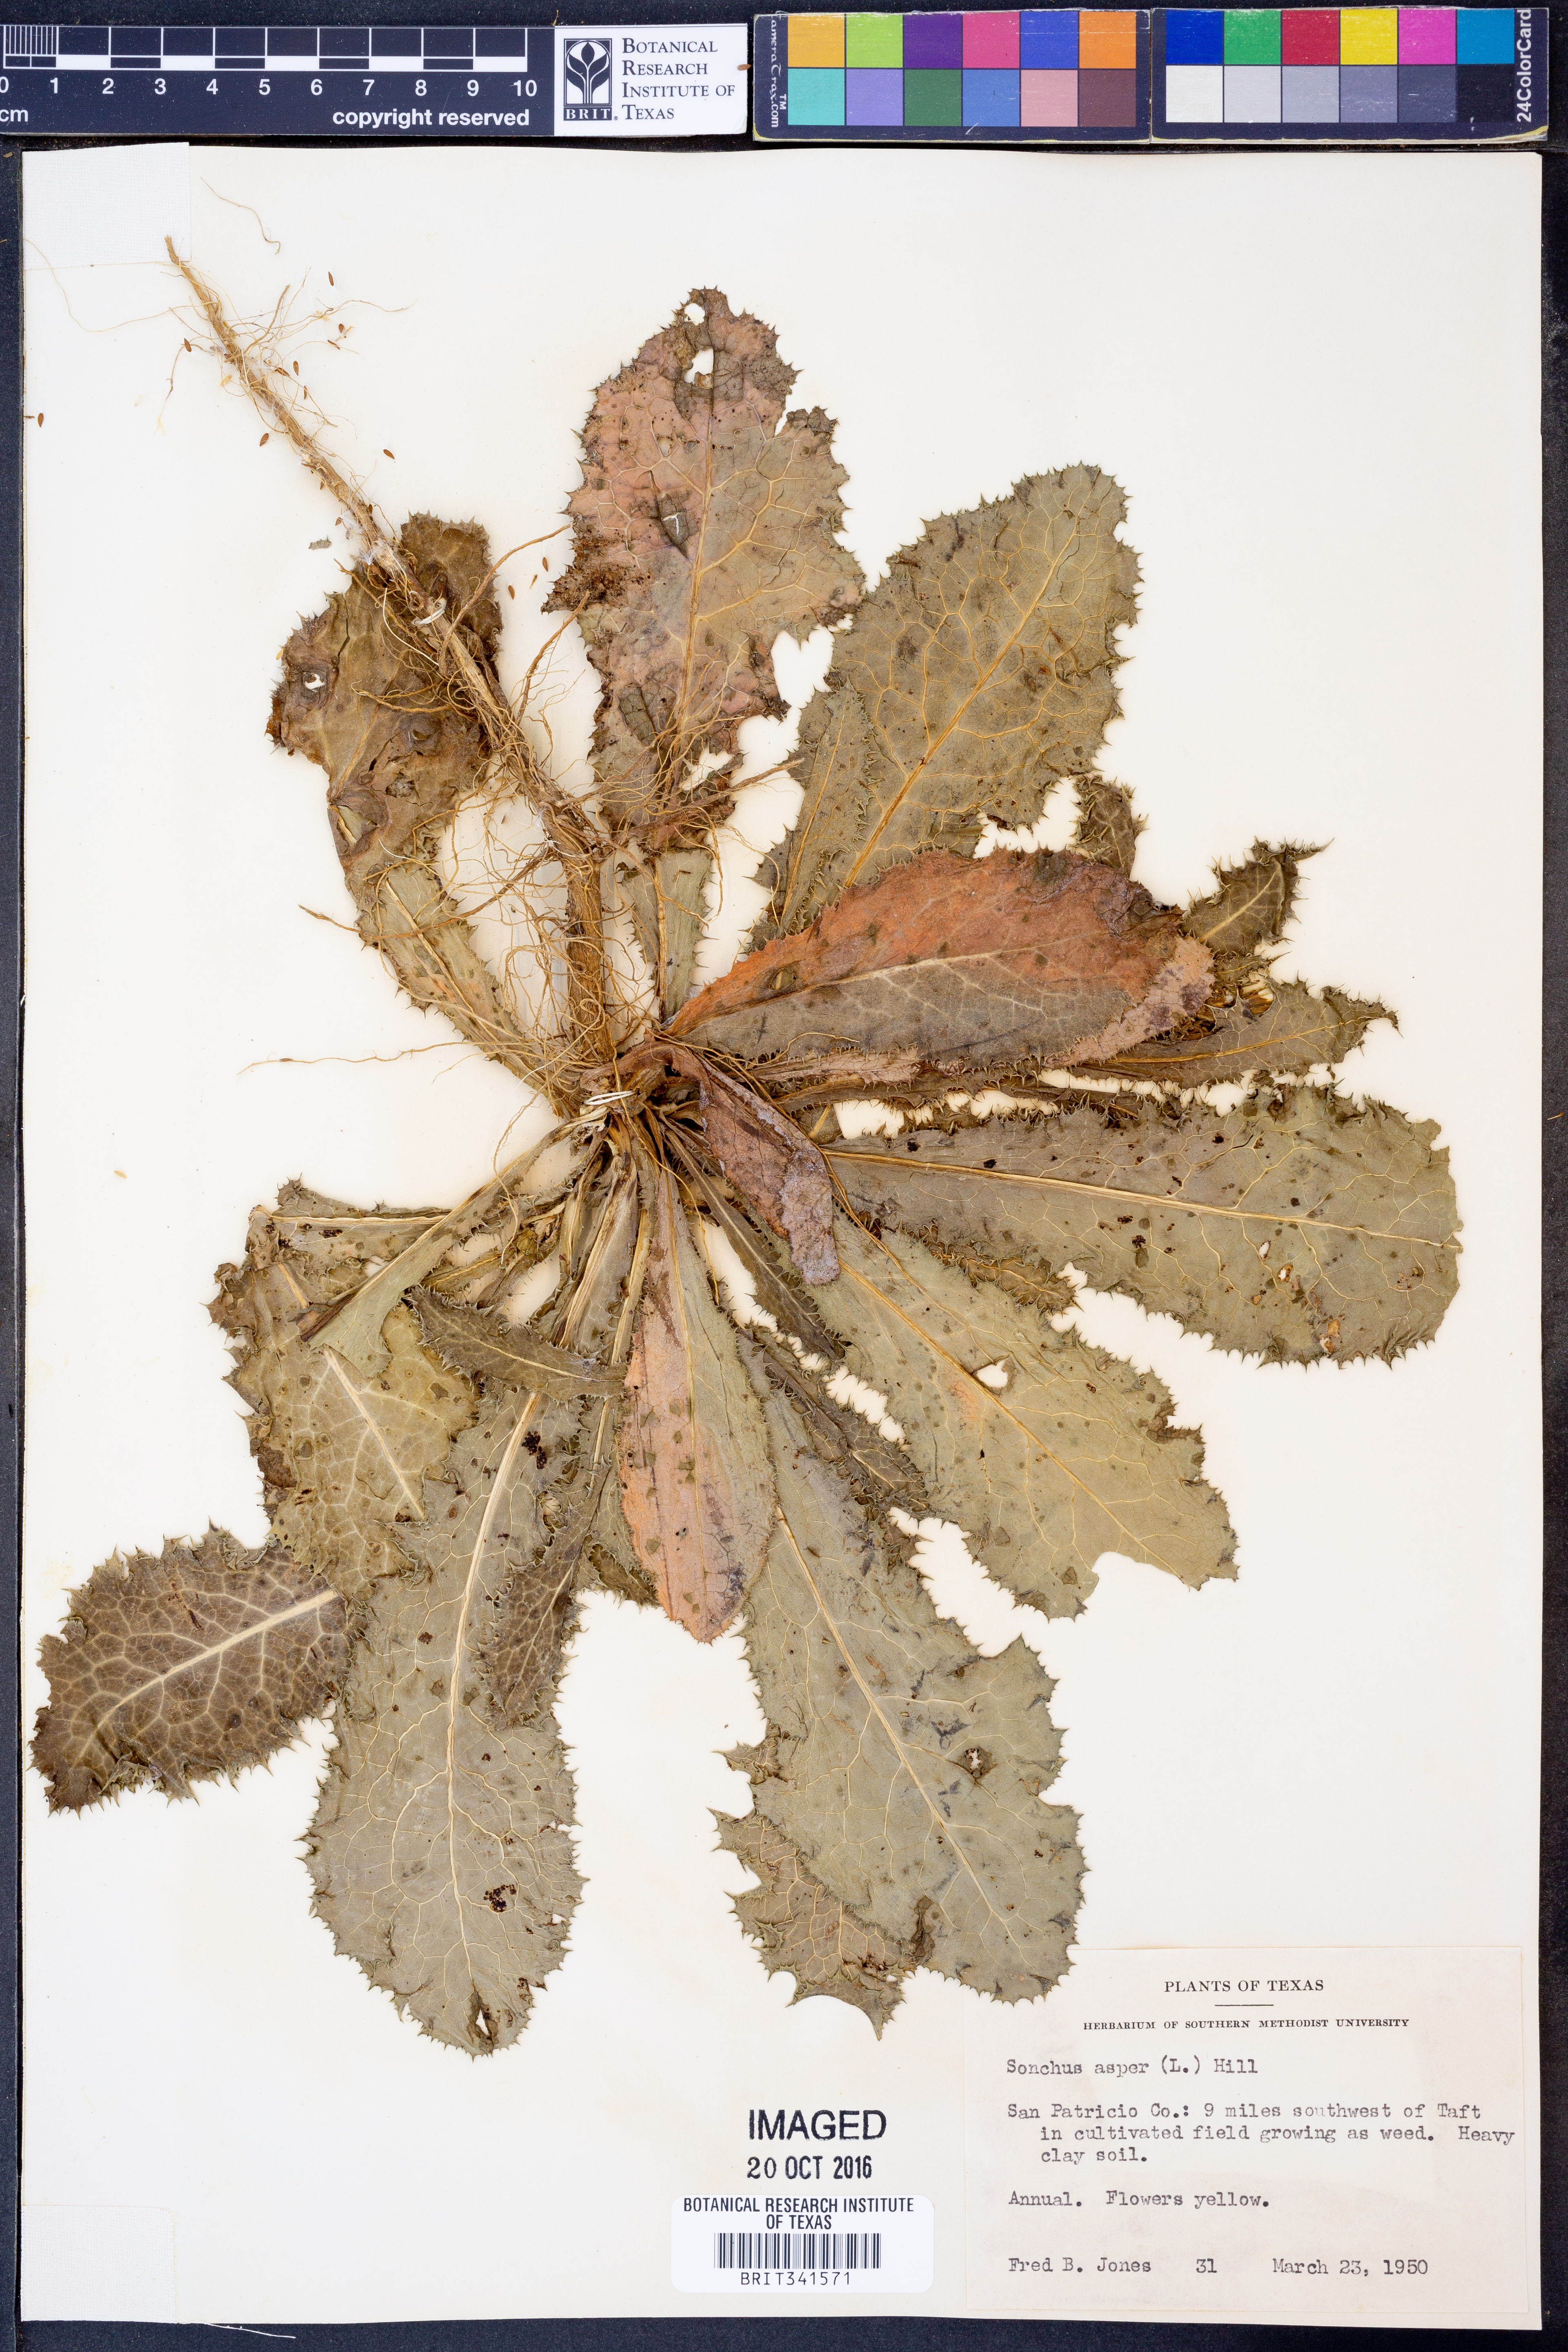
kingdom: Plantae
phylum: Tracheophyta
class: Magnoliopsida
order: Asterales
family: Asteraceae
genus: Sonchus
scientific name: Sonchus asper
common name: Prickly sow-thistle
